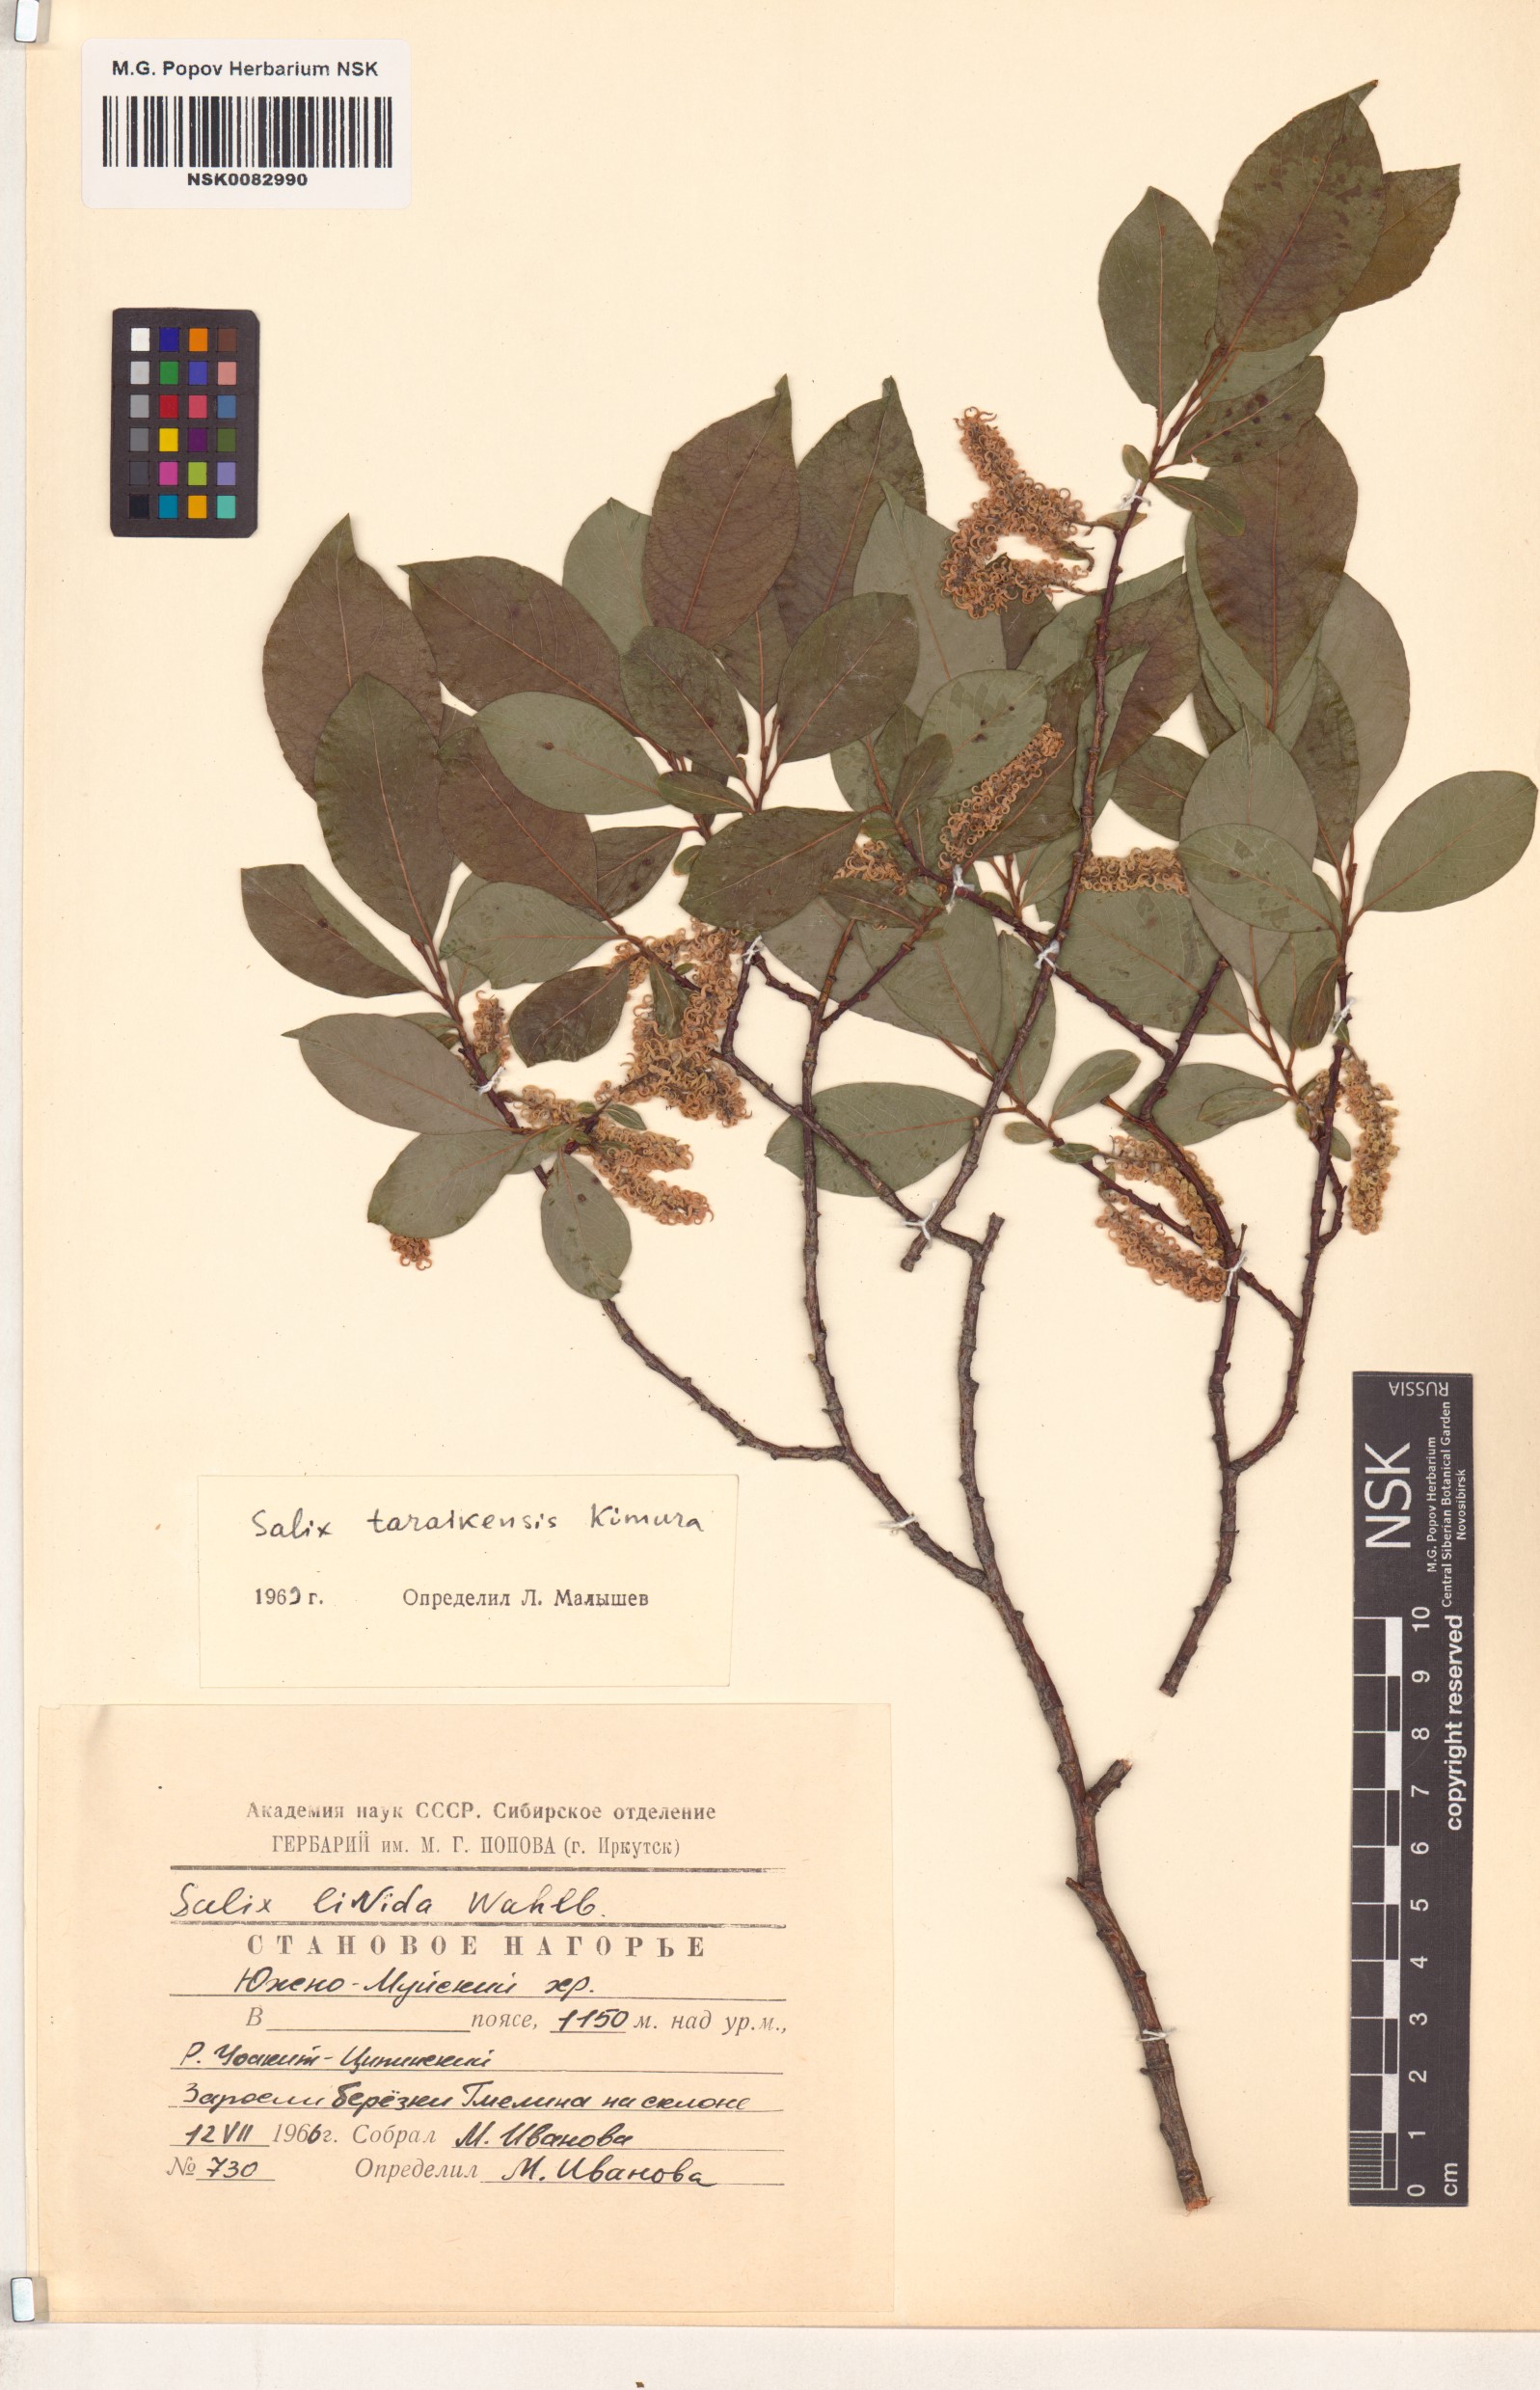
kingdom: Plantae
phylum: Tracheophyta
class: Magnoliopsida
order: Malpighiales
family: Salicaceae
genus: Salix
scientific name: Salix taraikensis
